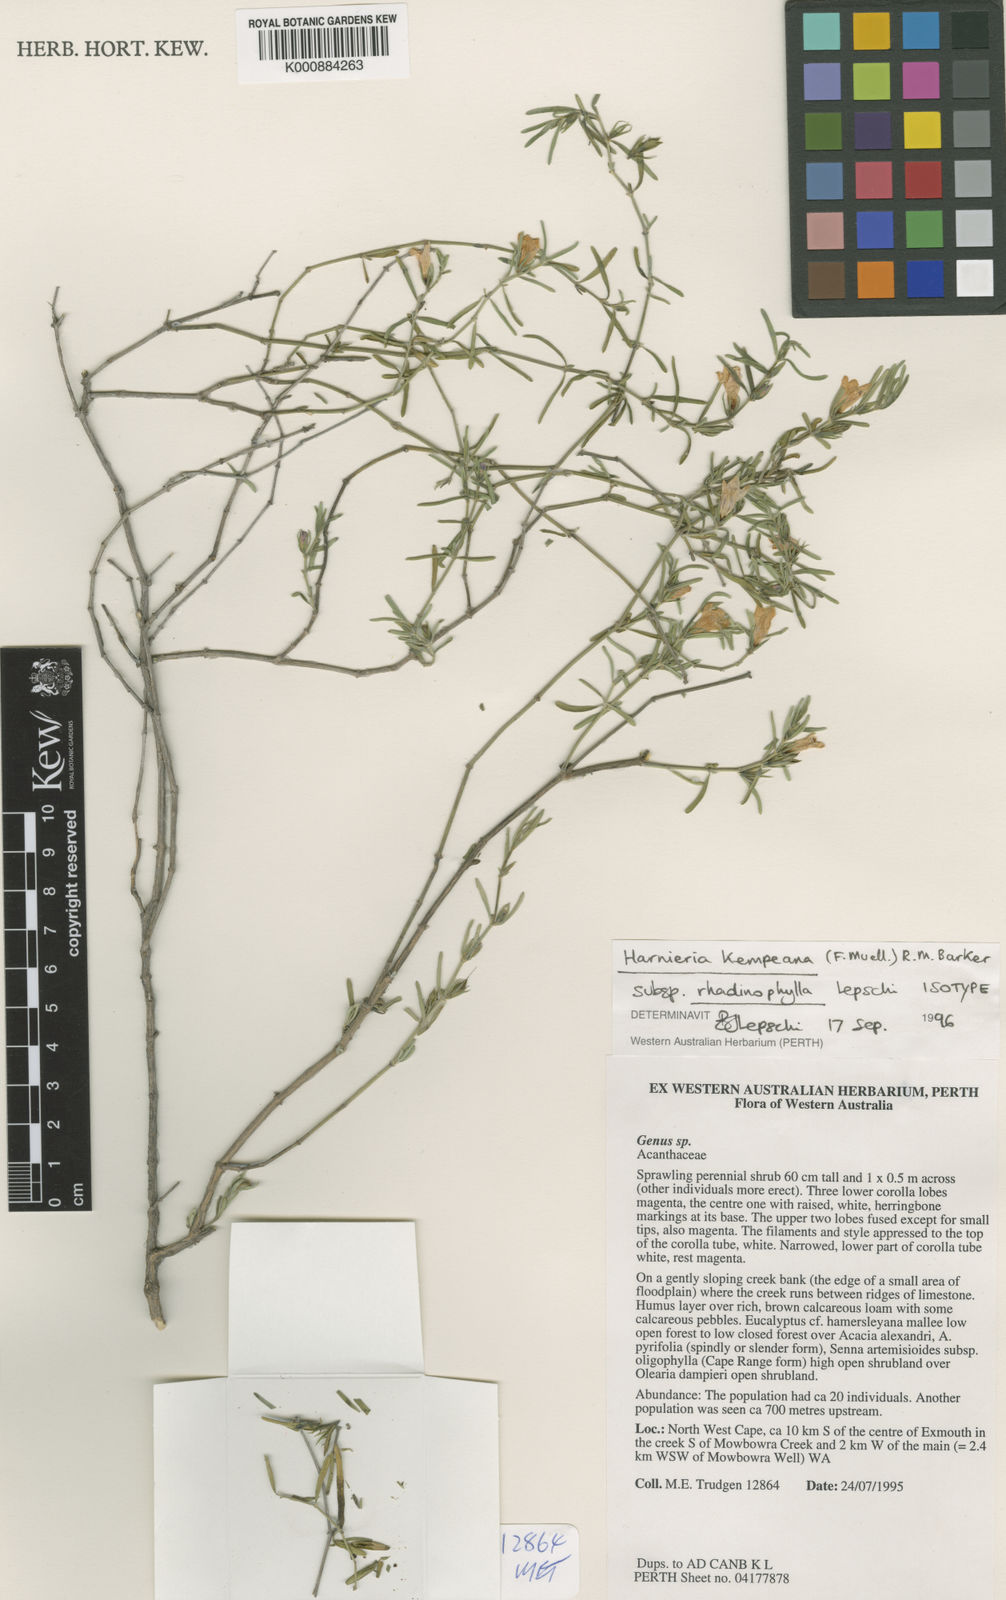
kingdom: Plantae
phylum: Tracheophyta
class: Magnoliopsida
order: Lamiales
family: Acanthaceae
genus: Justicia
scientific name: Justicia
